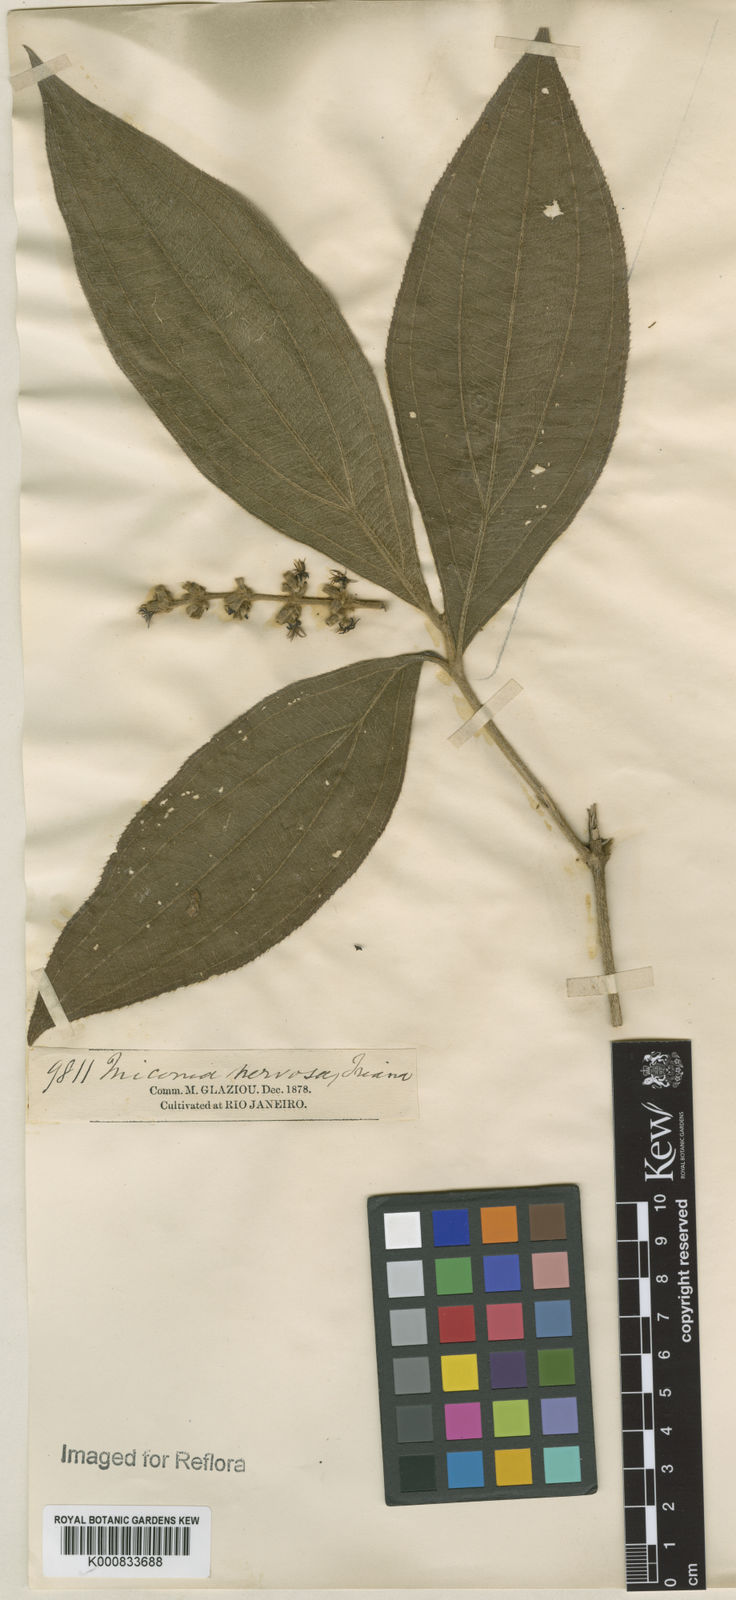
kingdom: Plantae
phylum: Tracheophyta
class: Magnoliopsida
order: Myrtales
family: Melastomataceae
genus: Miconia
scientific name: Miconia nervosa
